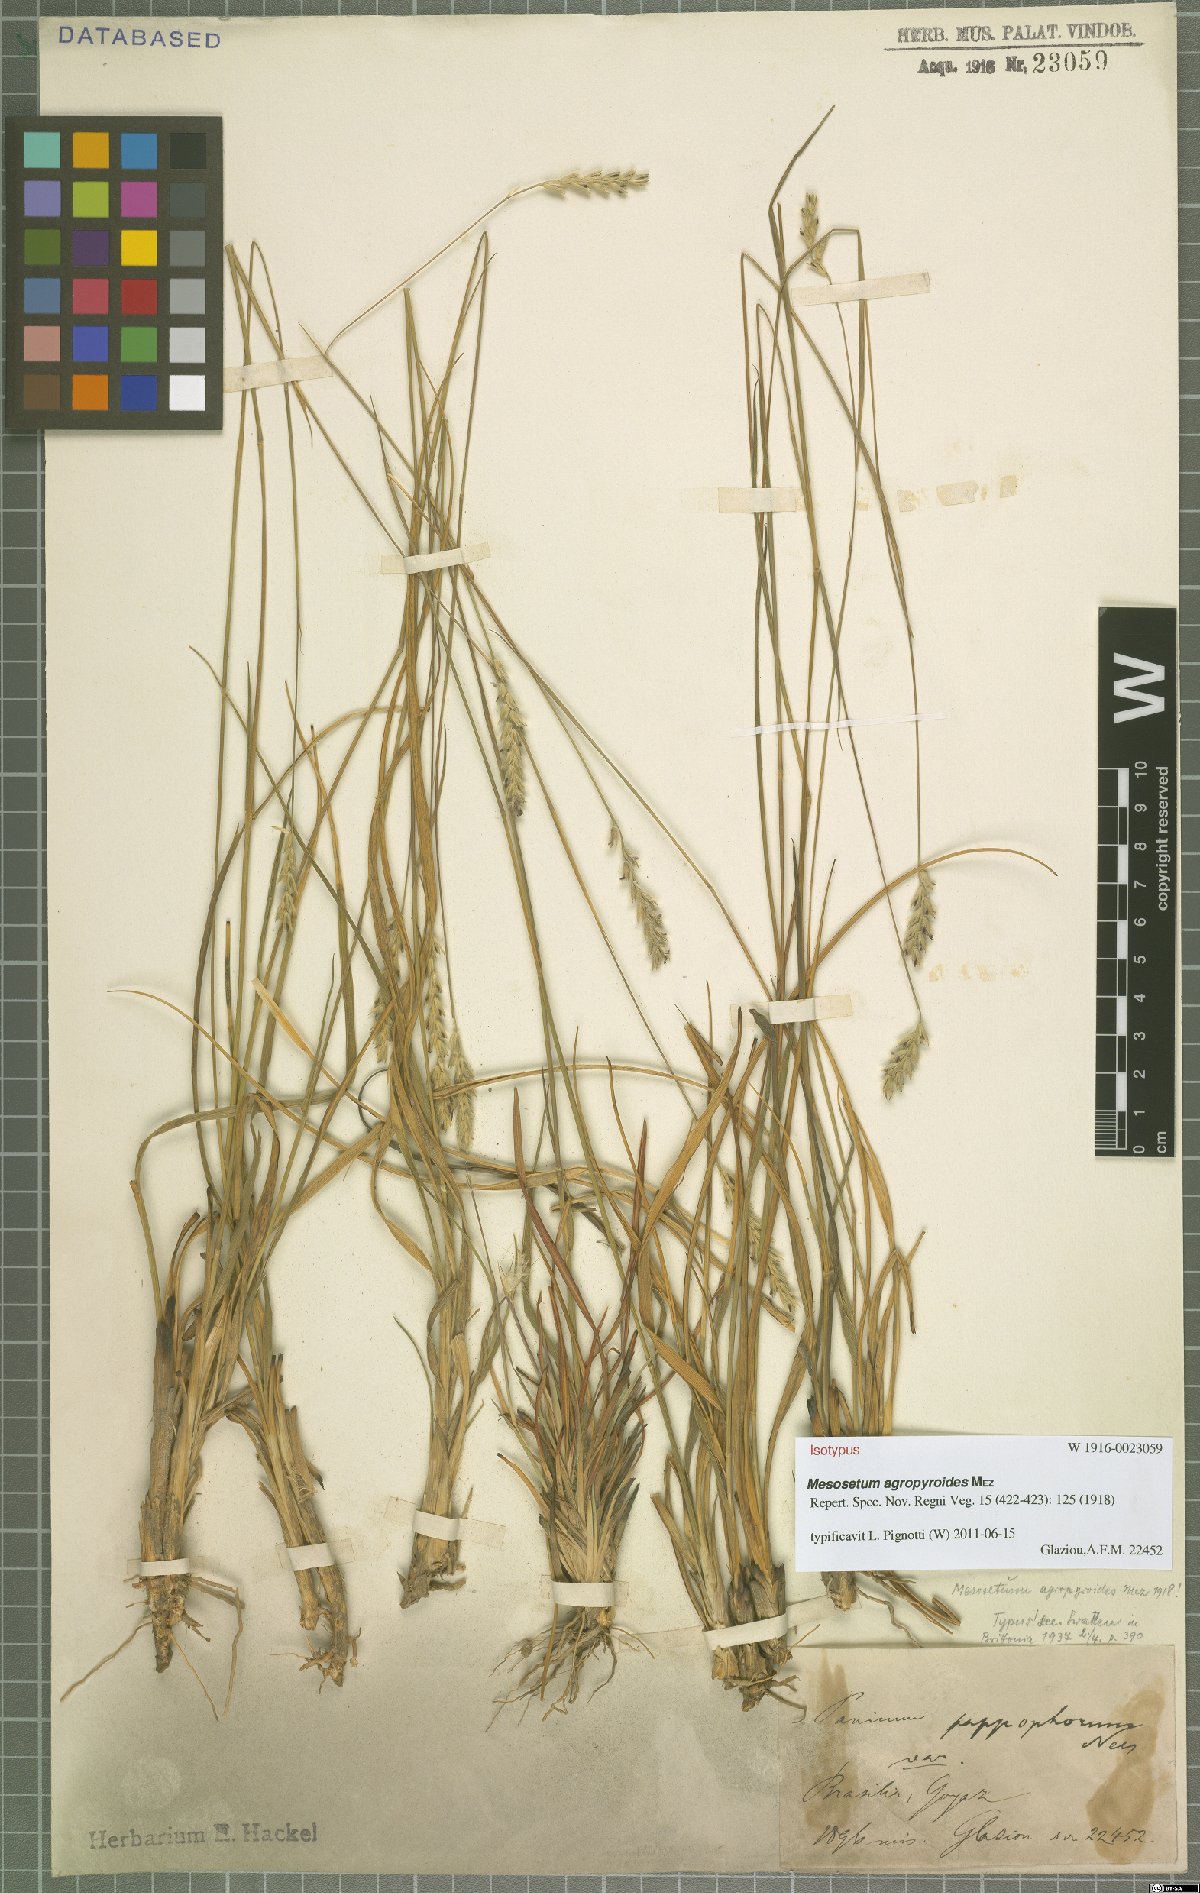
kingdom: Plantae
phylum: Tracheophyta
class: Liliopsida
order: Poales
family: Poaceae
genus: Mesosetum
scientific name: Mesosetum agropyroides
